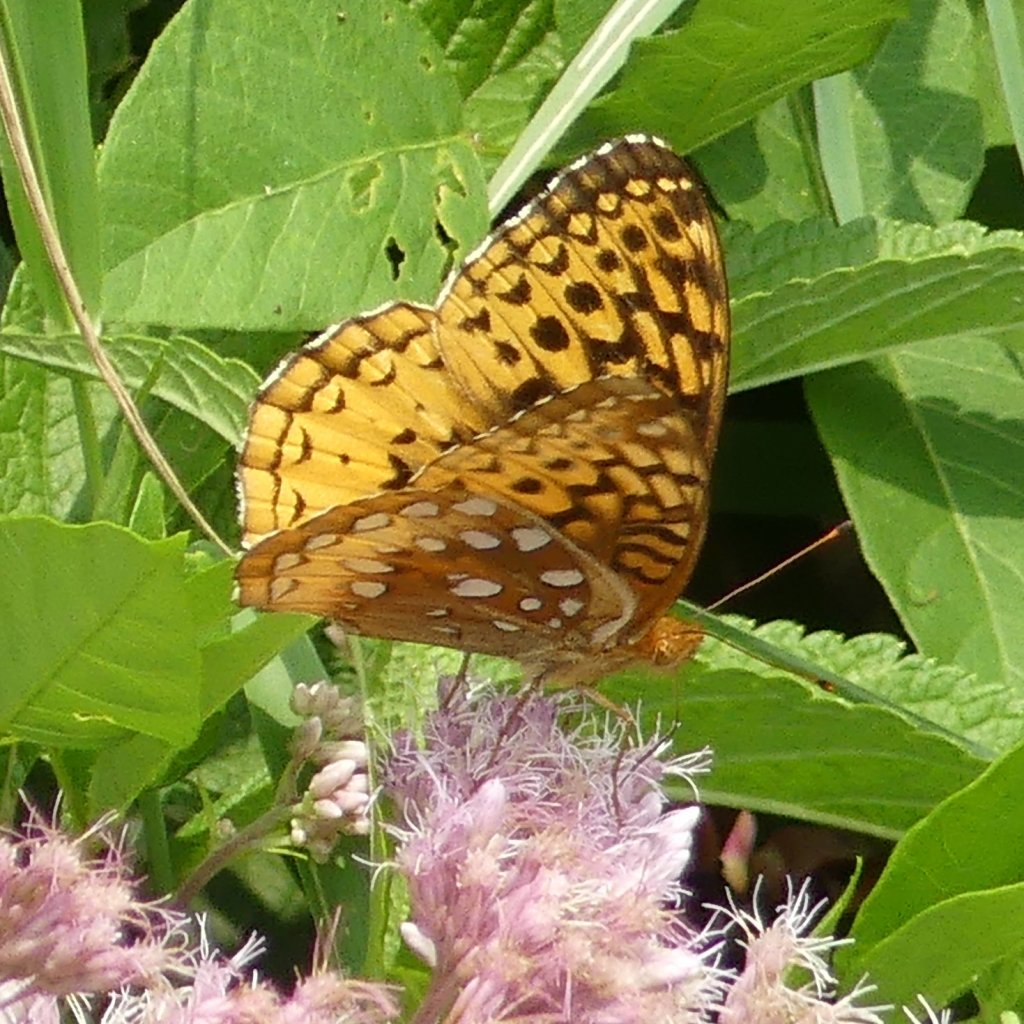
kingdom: Animalia
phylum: Arthropoda
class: Insecta
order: Lepidoptera
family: Nymphalidae
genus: Speyeria
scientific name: Speyeria cybele
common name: Great Spangled Fritillary
